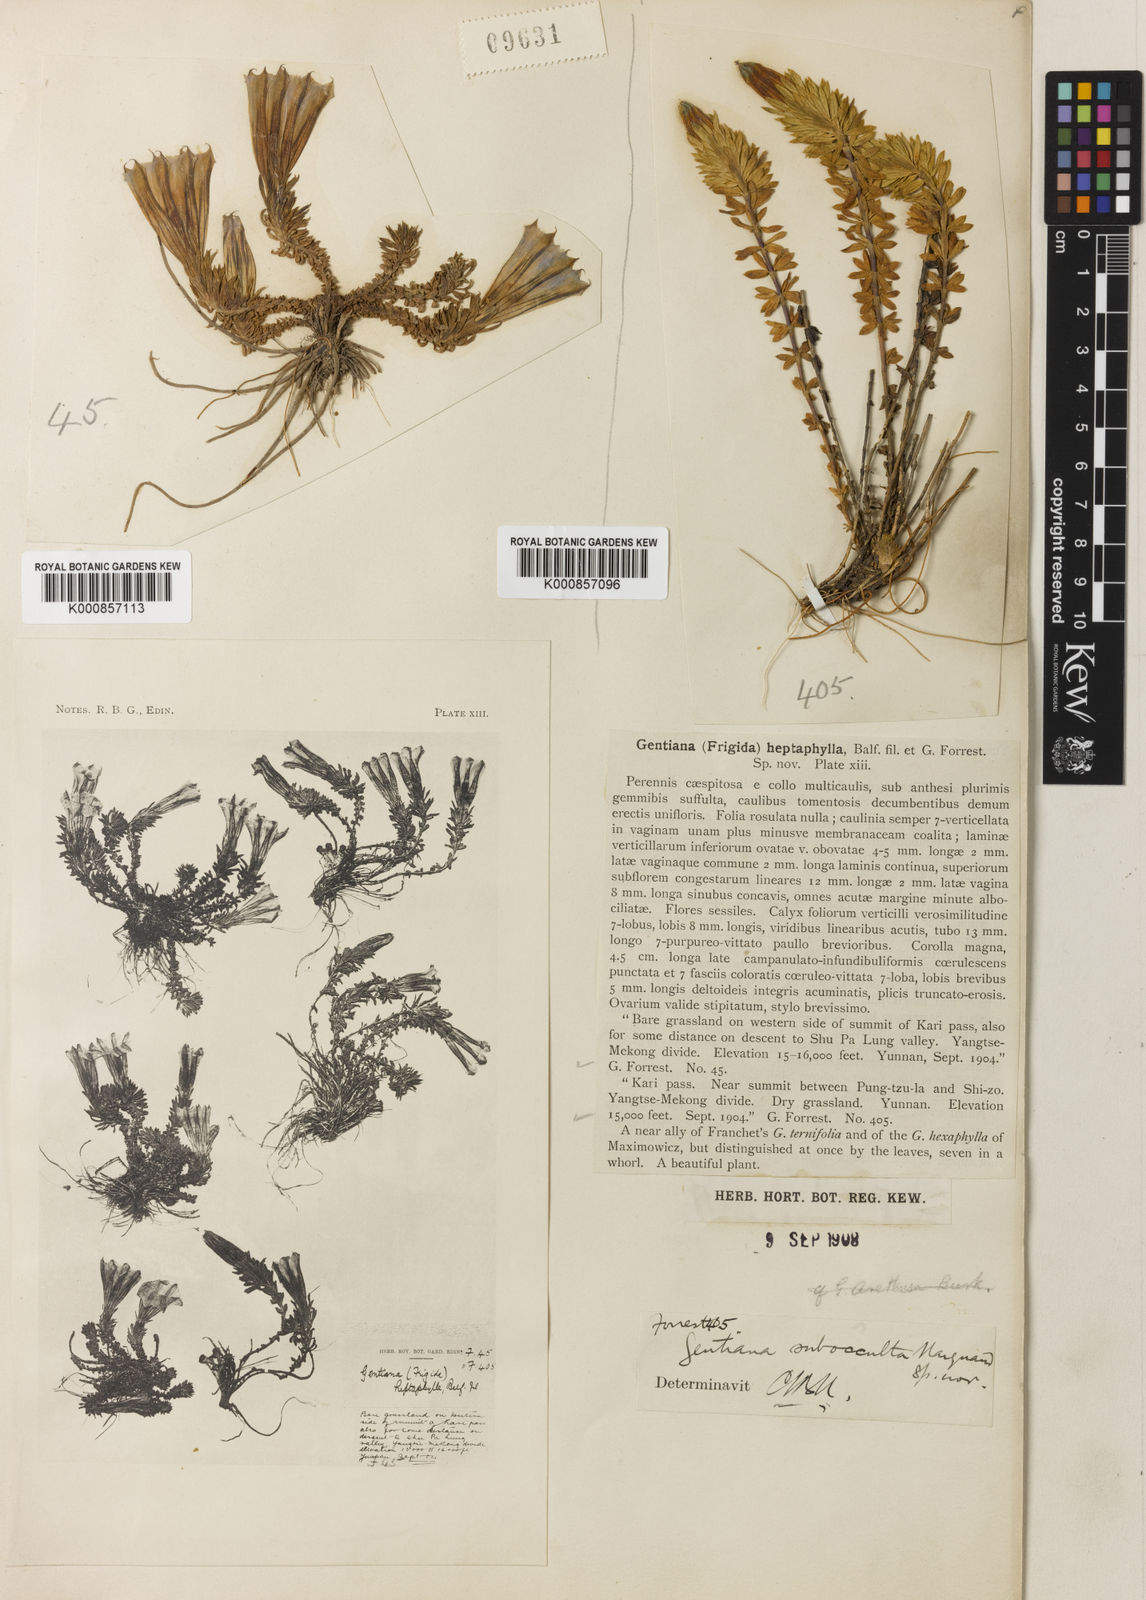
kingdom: Plantae
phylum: Tracheophyta
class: Magnoliopsida
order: Gentianales
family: Gentianaceae
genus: Gentiana
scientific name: Gentiana arethusae
